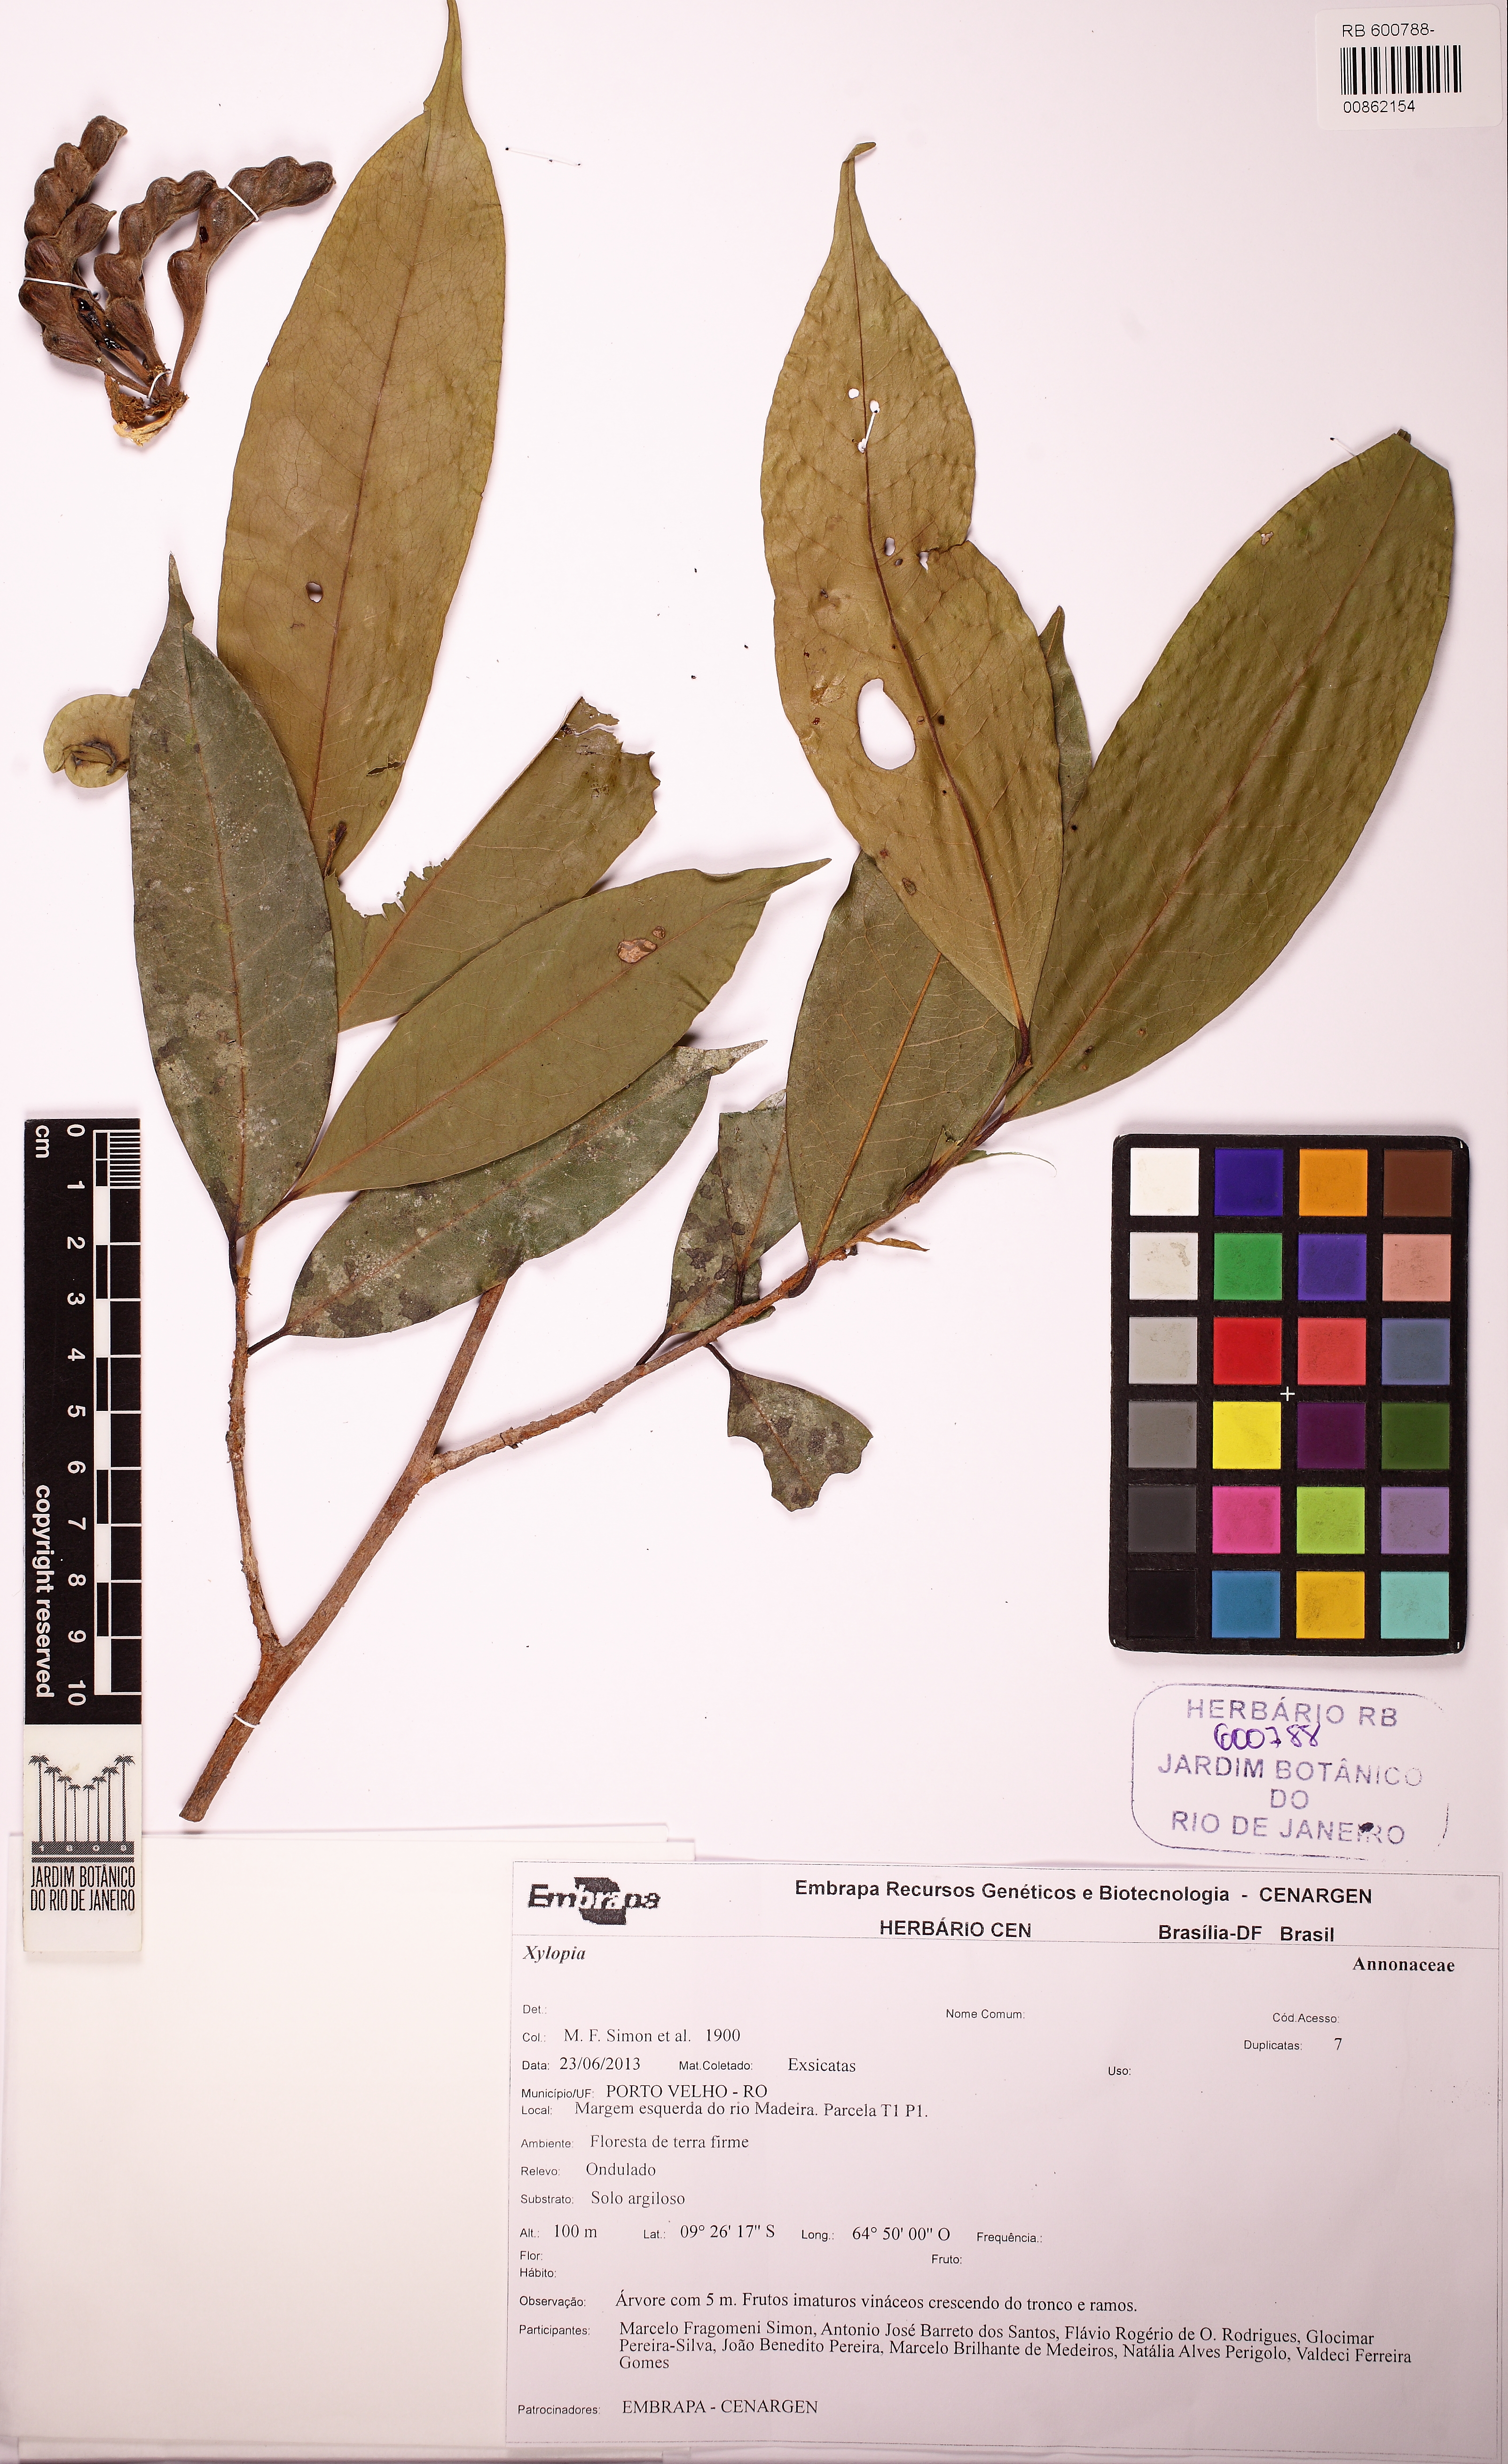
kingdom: Plantae
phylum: Tracheophyta
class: Magnoliopsida
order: Magnoliales
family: Annonaceae
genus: Xylopia
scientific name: Xylopia ochrantha
